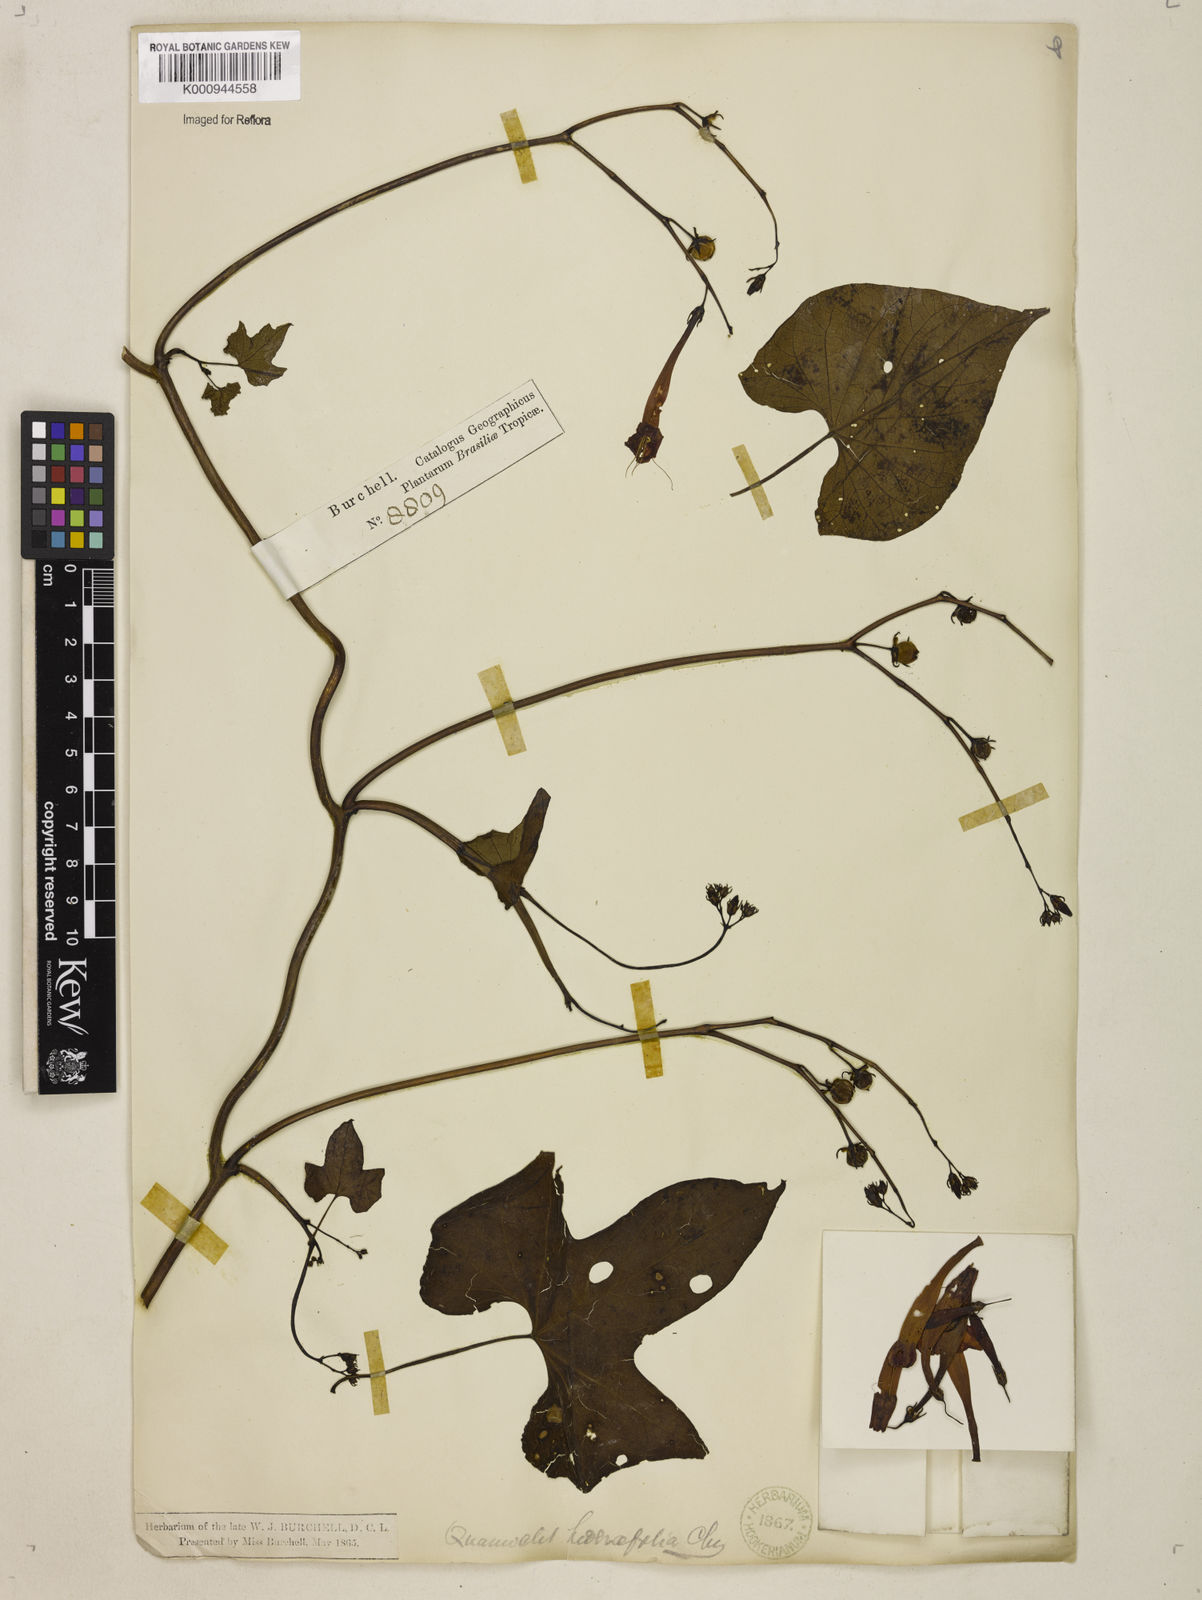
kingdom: Plantae
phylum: Tracheophyta
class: Magnoliopsida
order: Solanales
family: Convolvulaceae
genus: Ipomoea
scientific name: Ipomoea hederifolia
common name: Ivy-leaf morning-glory
